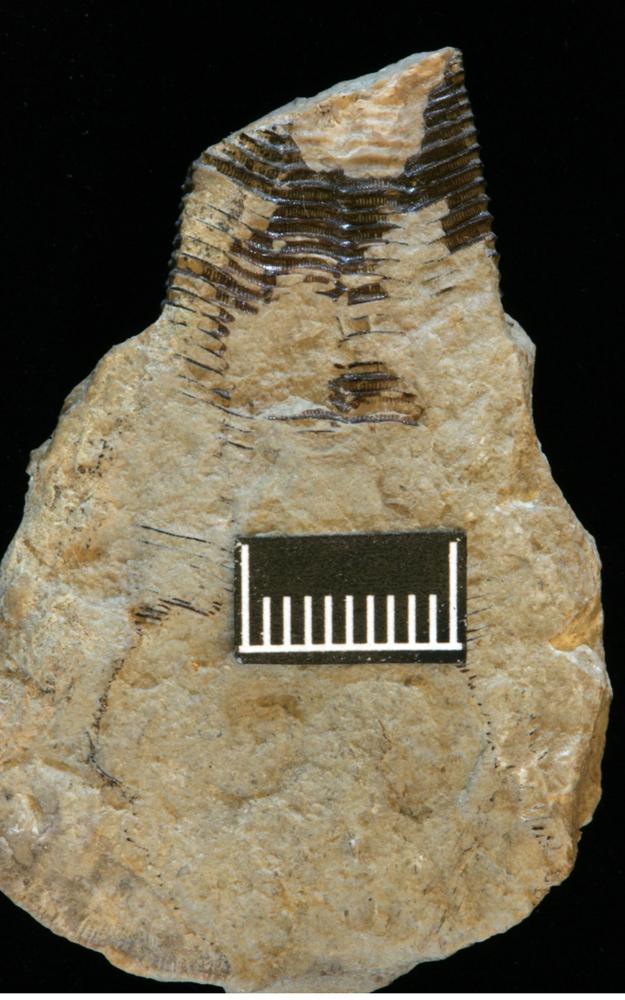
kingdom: Animalia
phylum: Cnidaria
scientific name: Cnidaria
